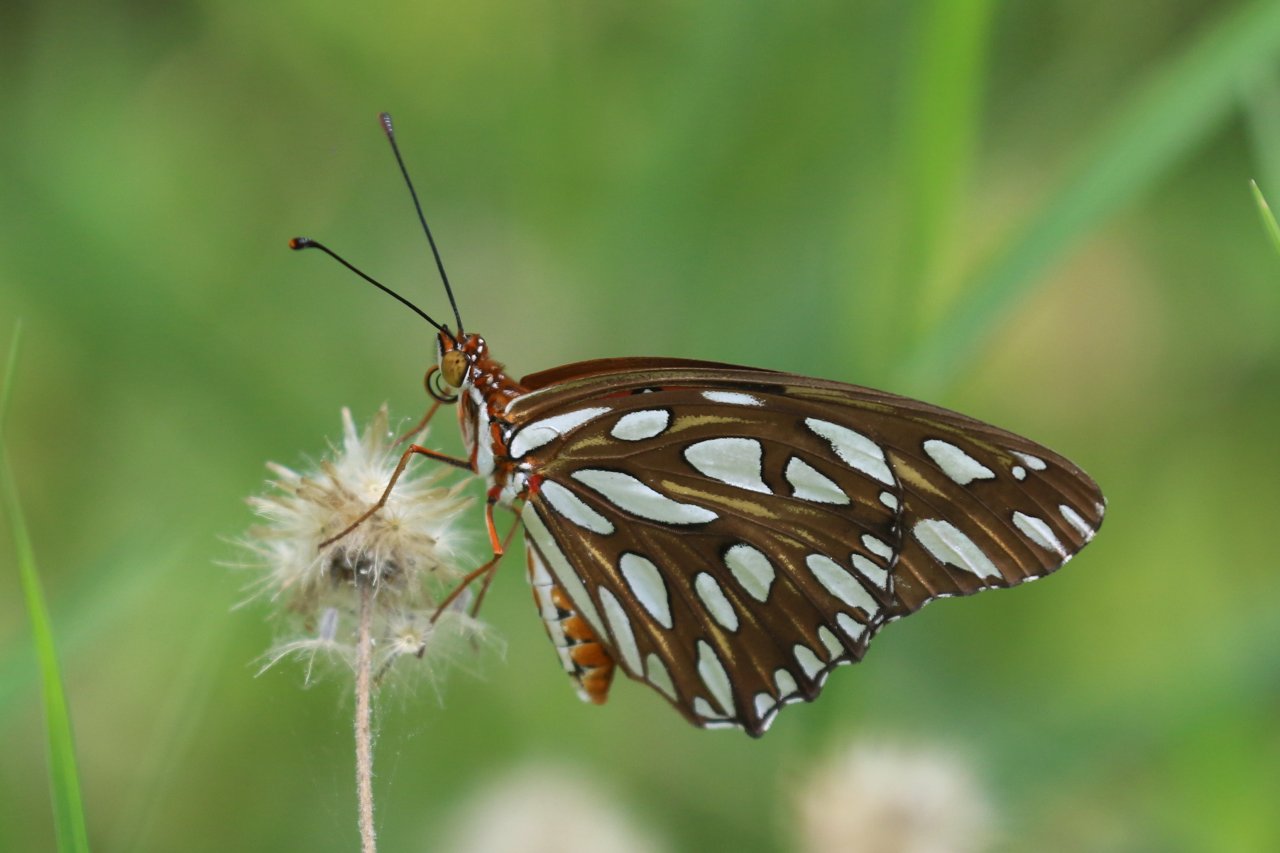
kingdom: Animalia
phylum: Arthropoda
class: Insecta
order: Lepidoptera
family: Nymphalidae
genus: Dione
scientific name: Dione vanillae
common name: Gulf Fritillary
